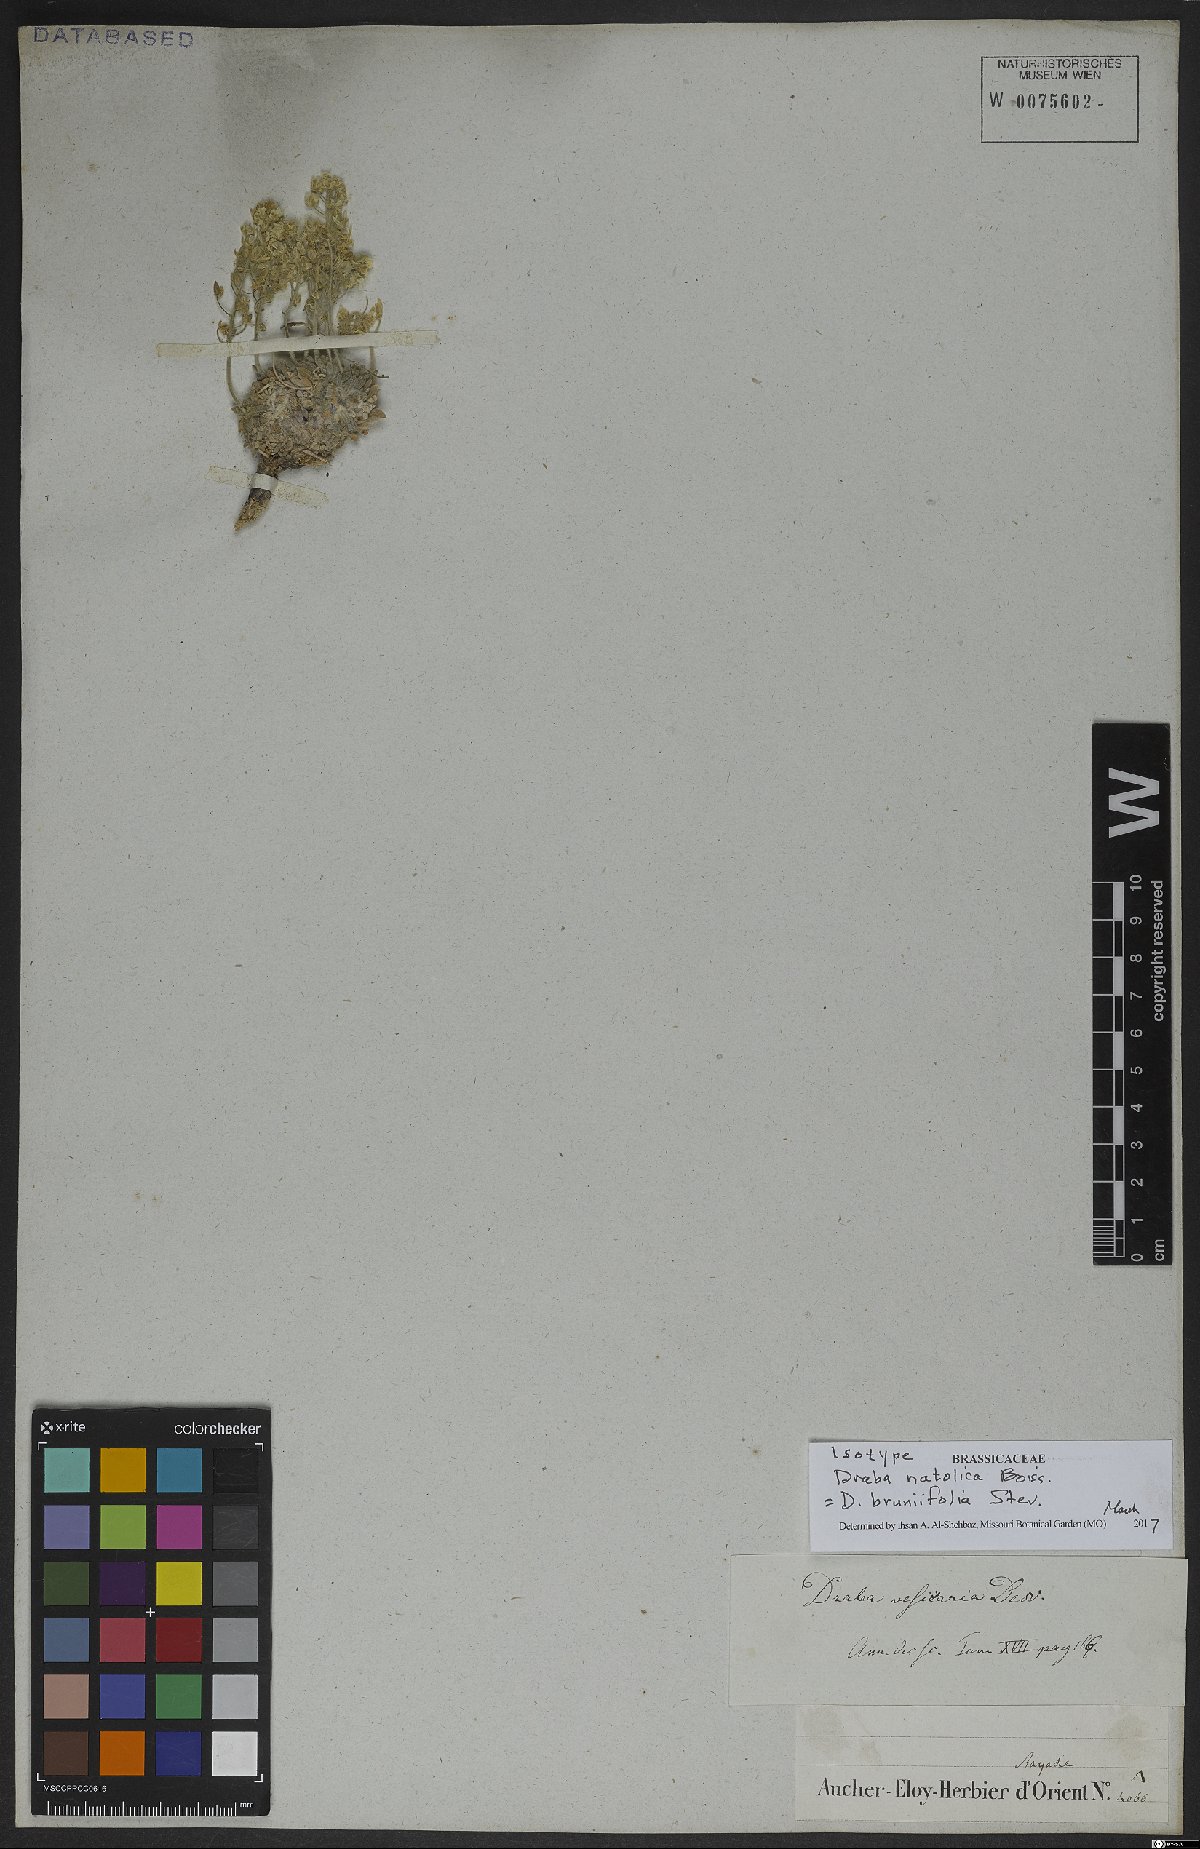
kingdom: Plantae
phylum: Tracheophyta
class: Magnoliopsida
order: Brassicales
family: Brassicaceae
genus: Draba
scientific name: Draba bruniifolia
